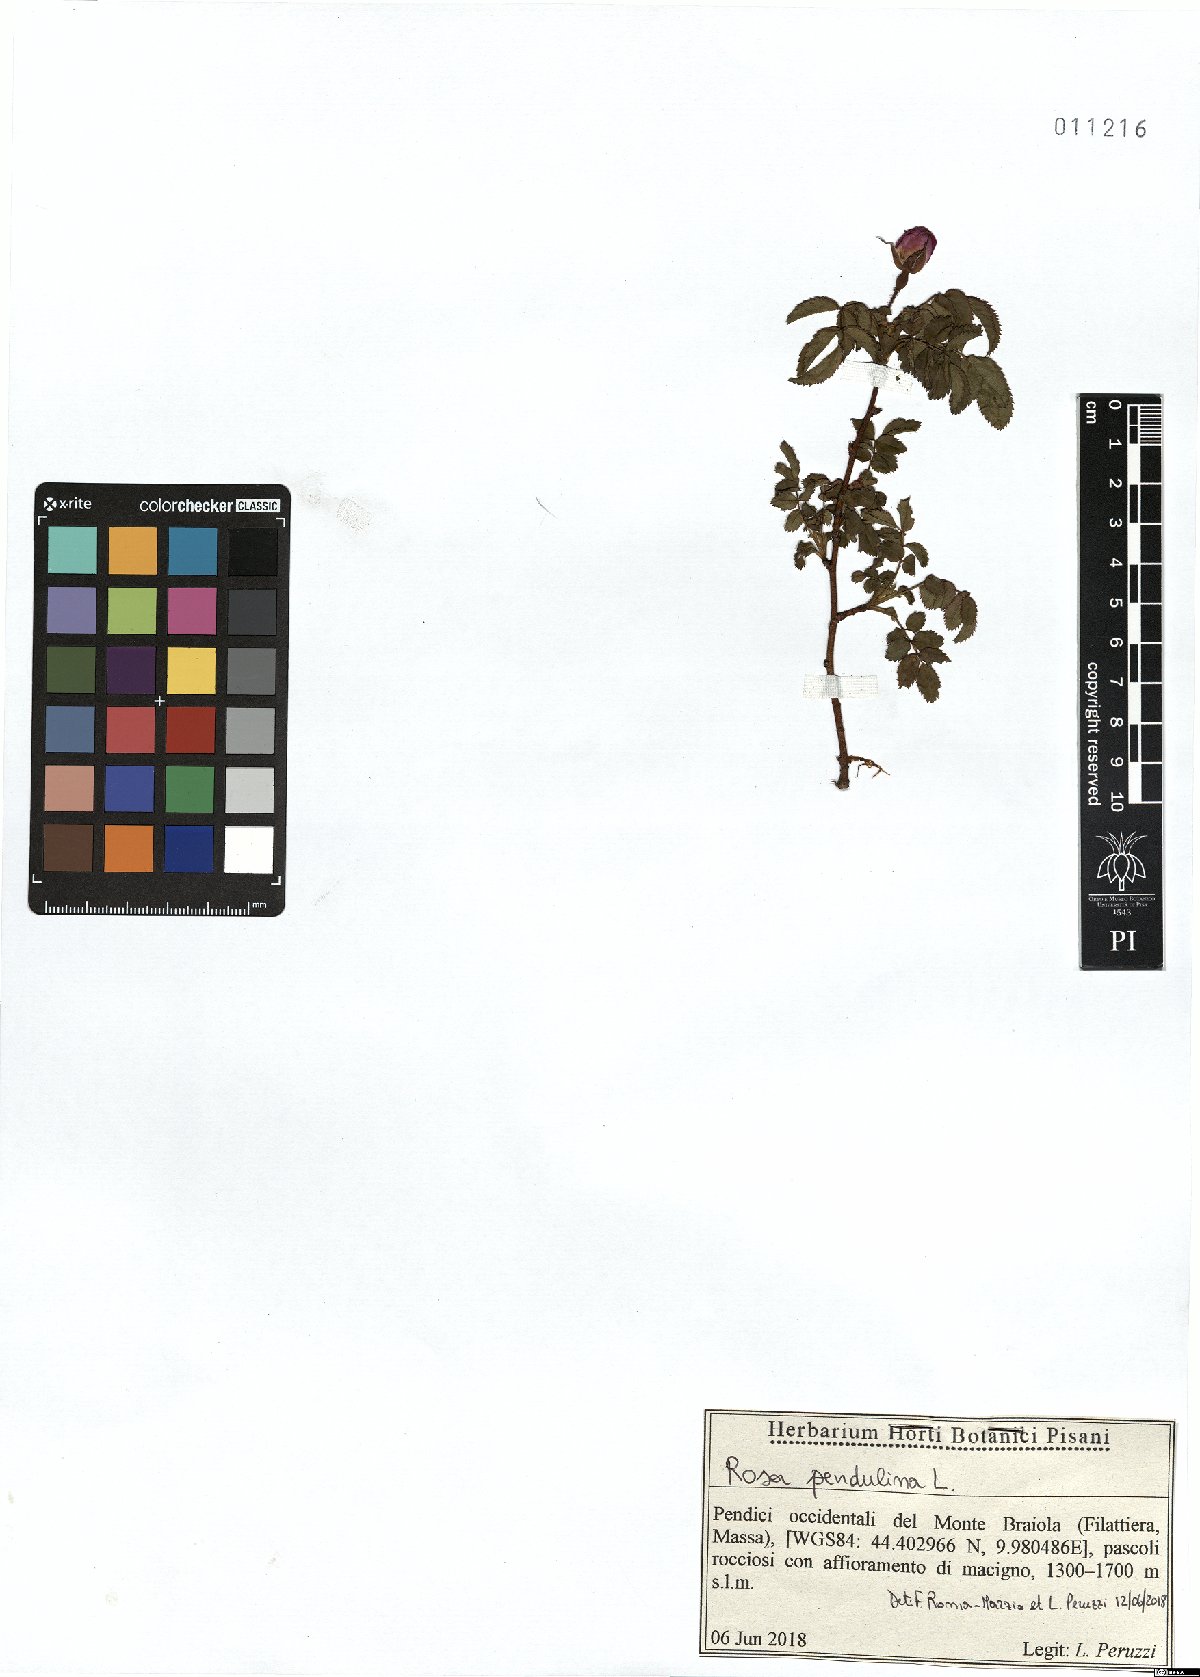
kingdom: Plantae
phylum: Tracheophyta
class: Magnoliopsida
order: Rosales
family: Rosaceae
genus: Rosa
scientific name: Rosa pendulina
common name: Alpine rose
